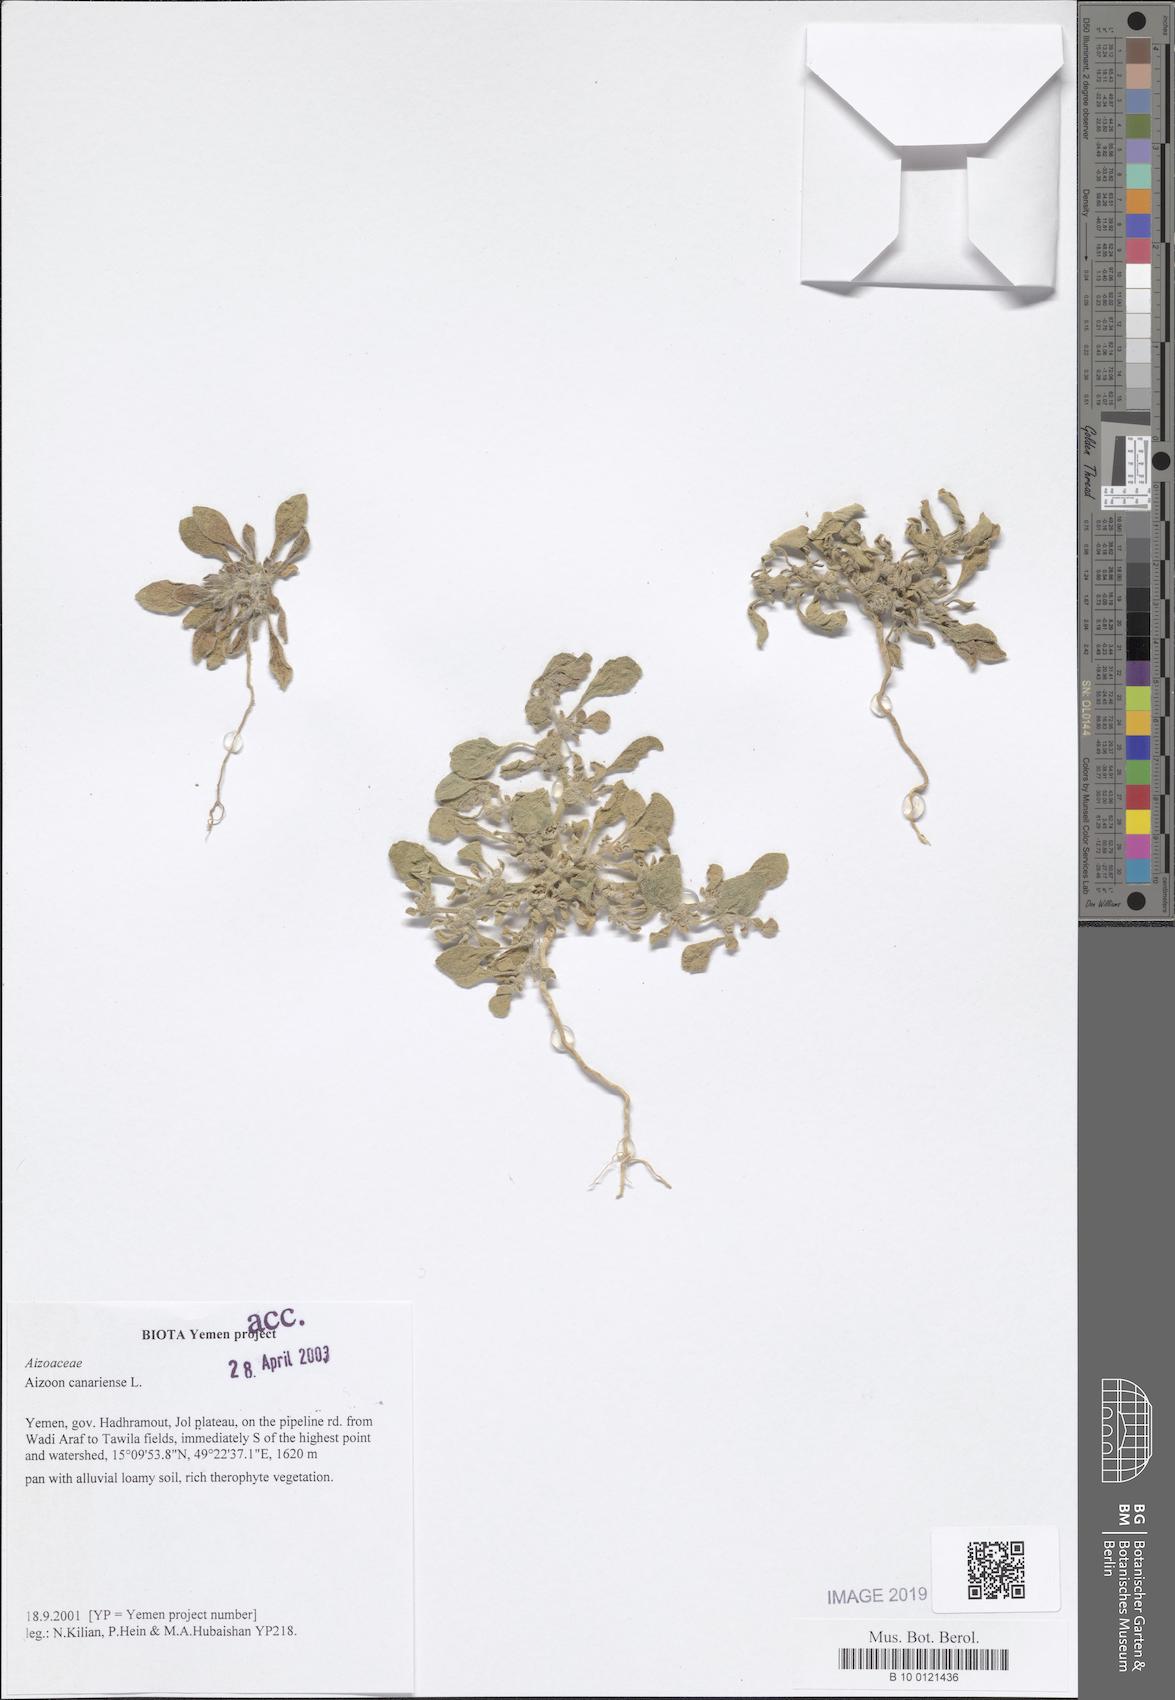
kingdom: Plantae
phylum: Tracheophyta
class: Magnoliopsida
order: Caryophyllales
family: Aizoaceae
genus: Aizoon
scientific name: Aizoon canariense
